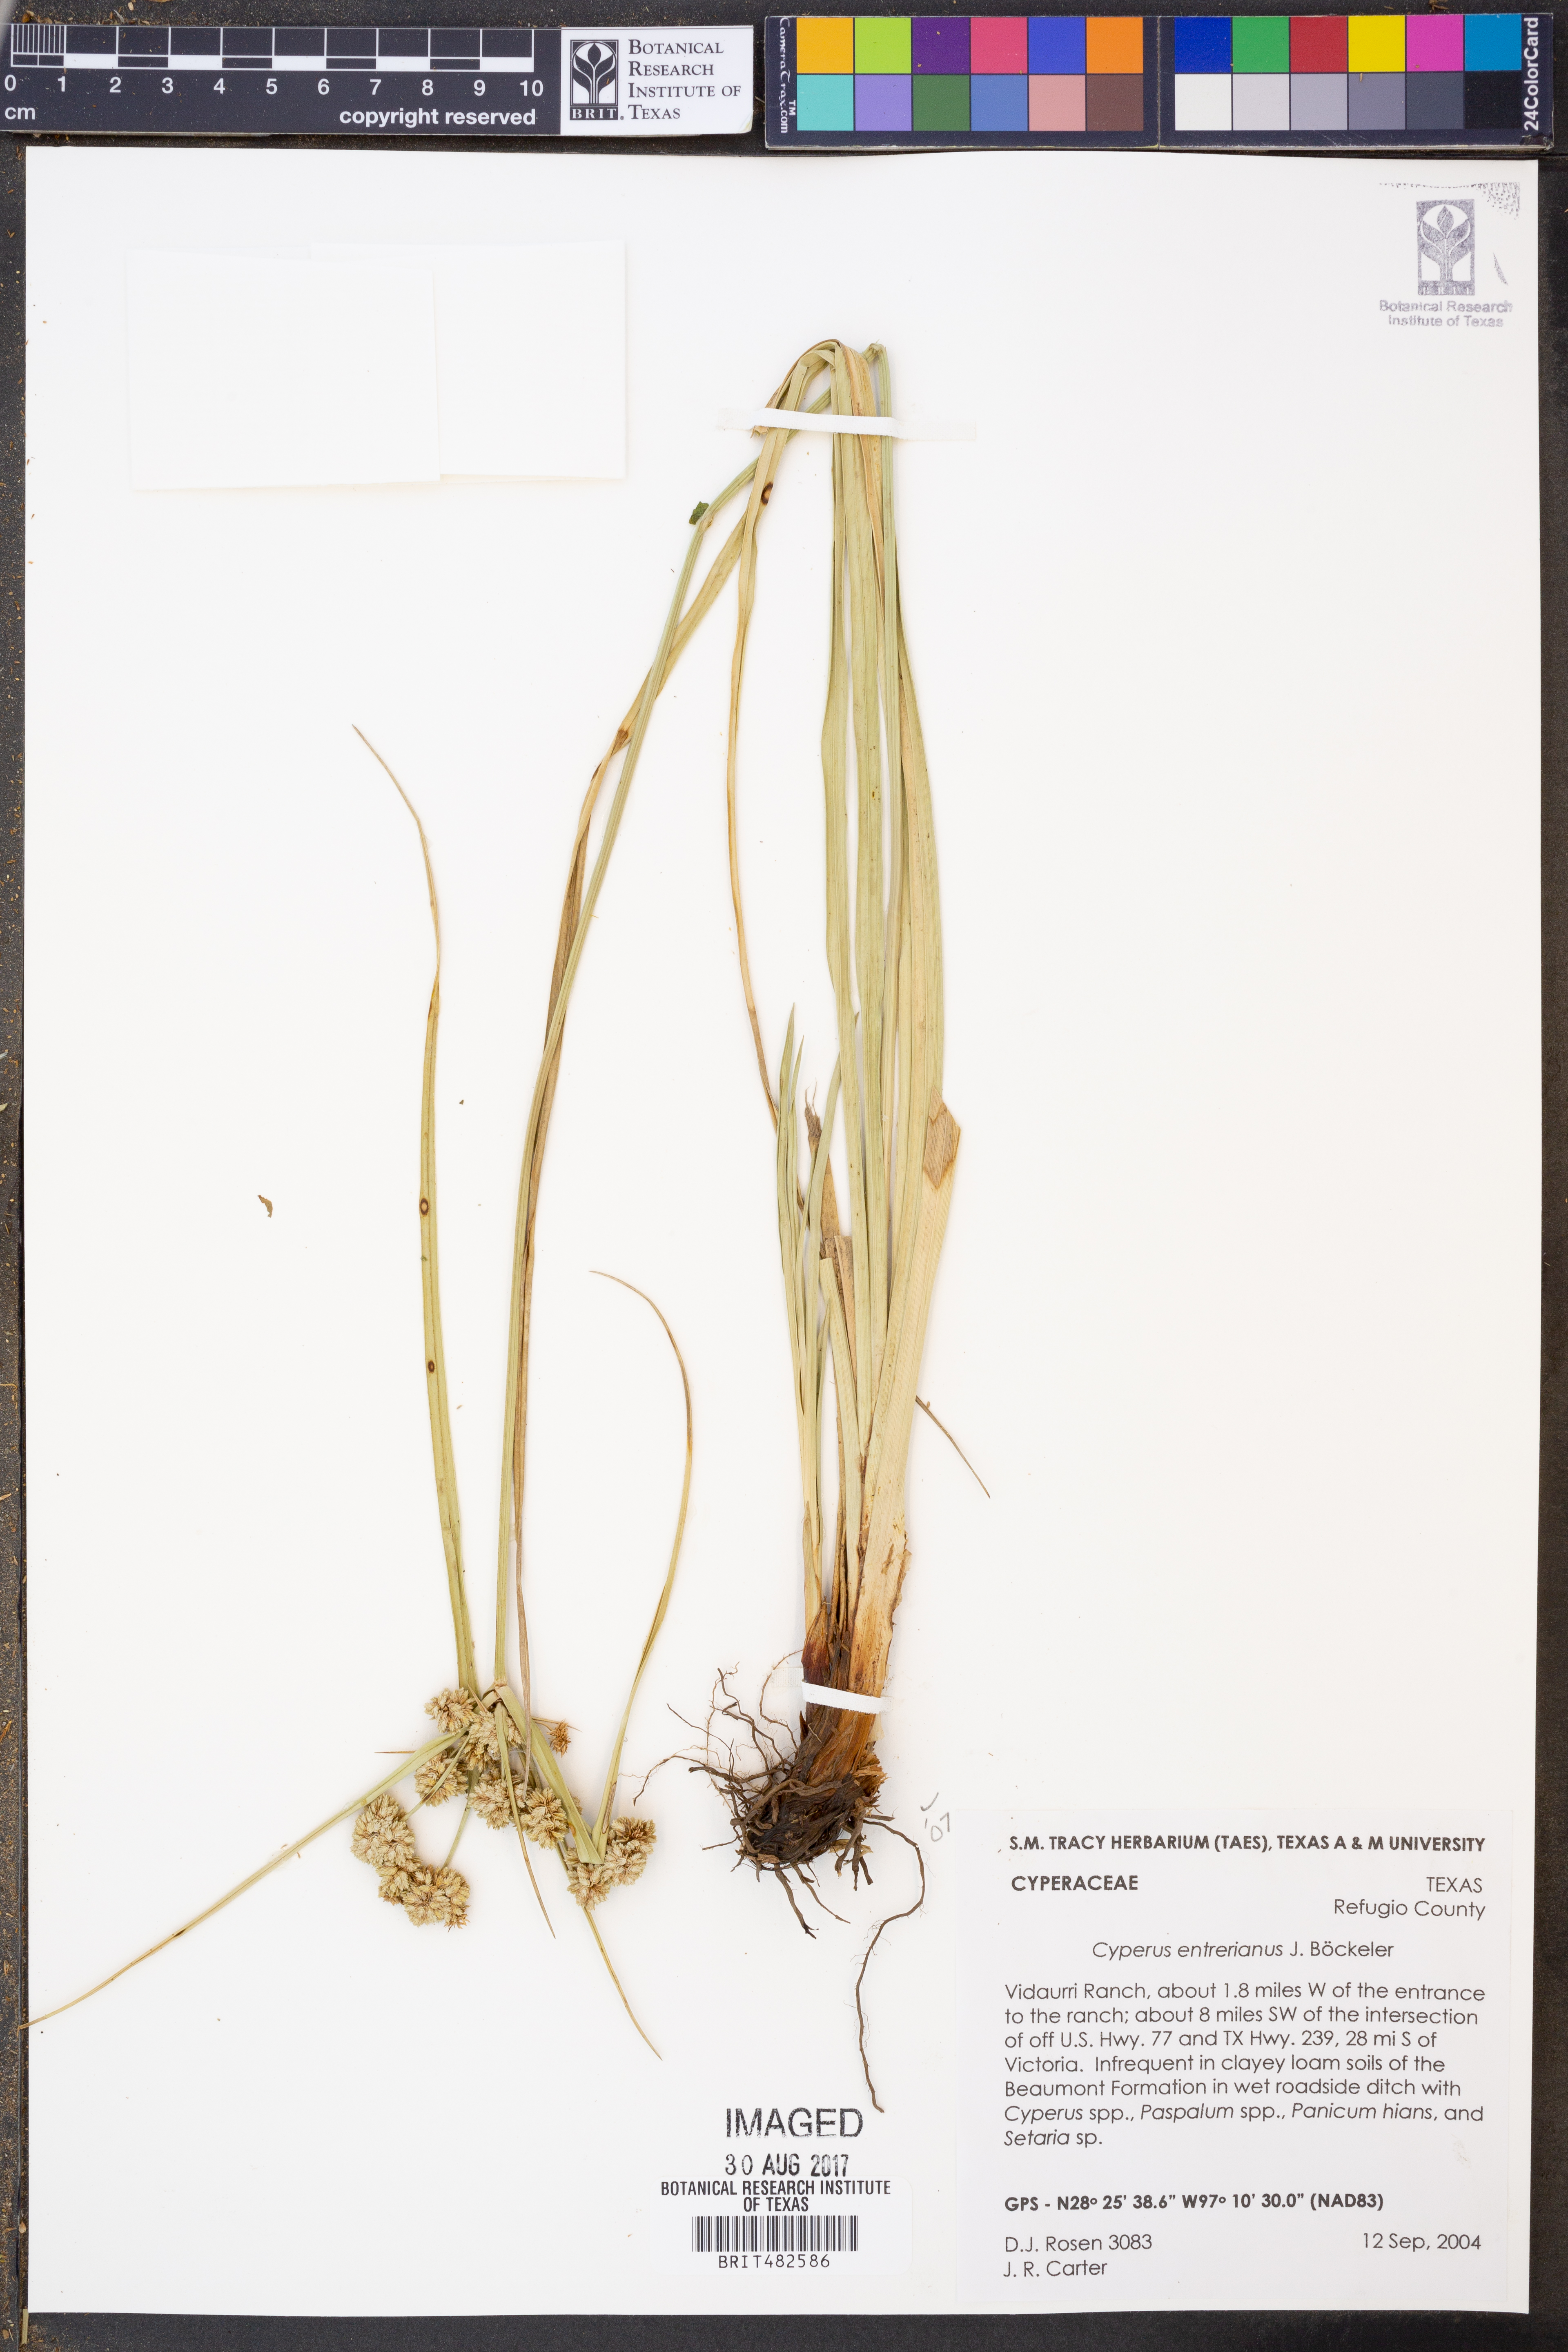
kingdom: Plantae
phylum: Tracheophyta
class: Liliopsida
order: Poales
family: Cyperaceae
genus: Cyperus
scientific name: Cyperus entrerianus
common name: Woodrush flatsedge
